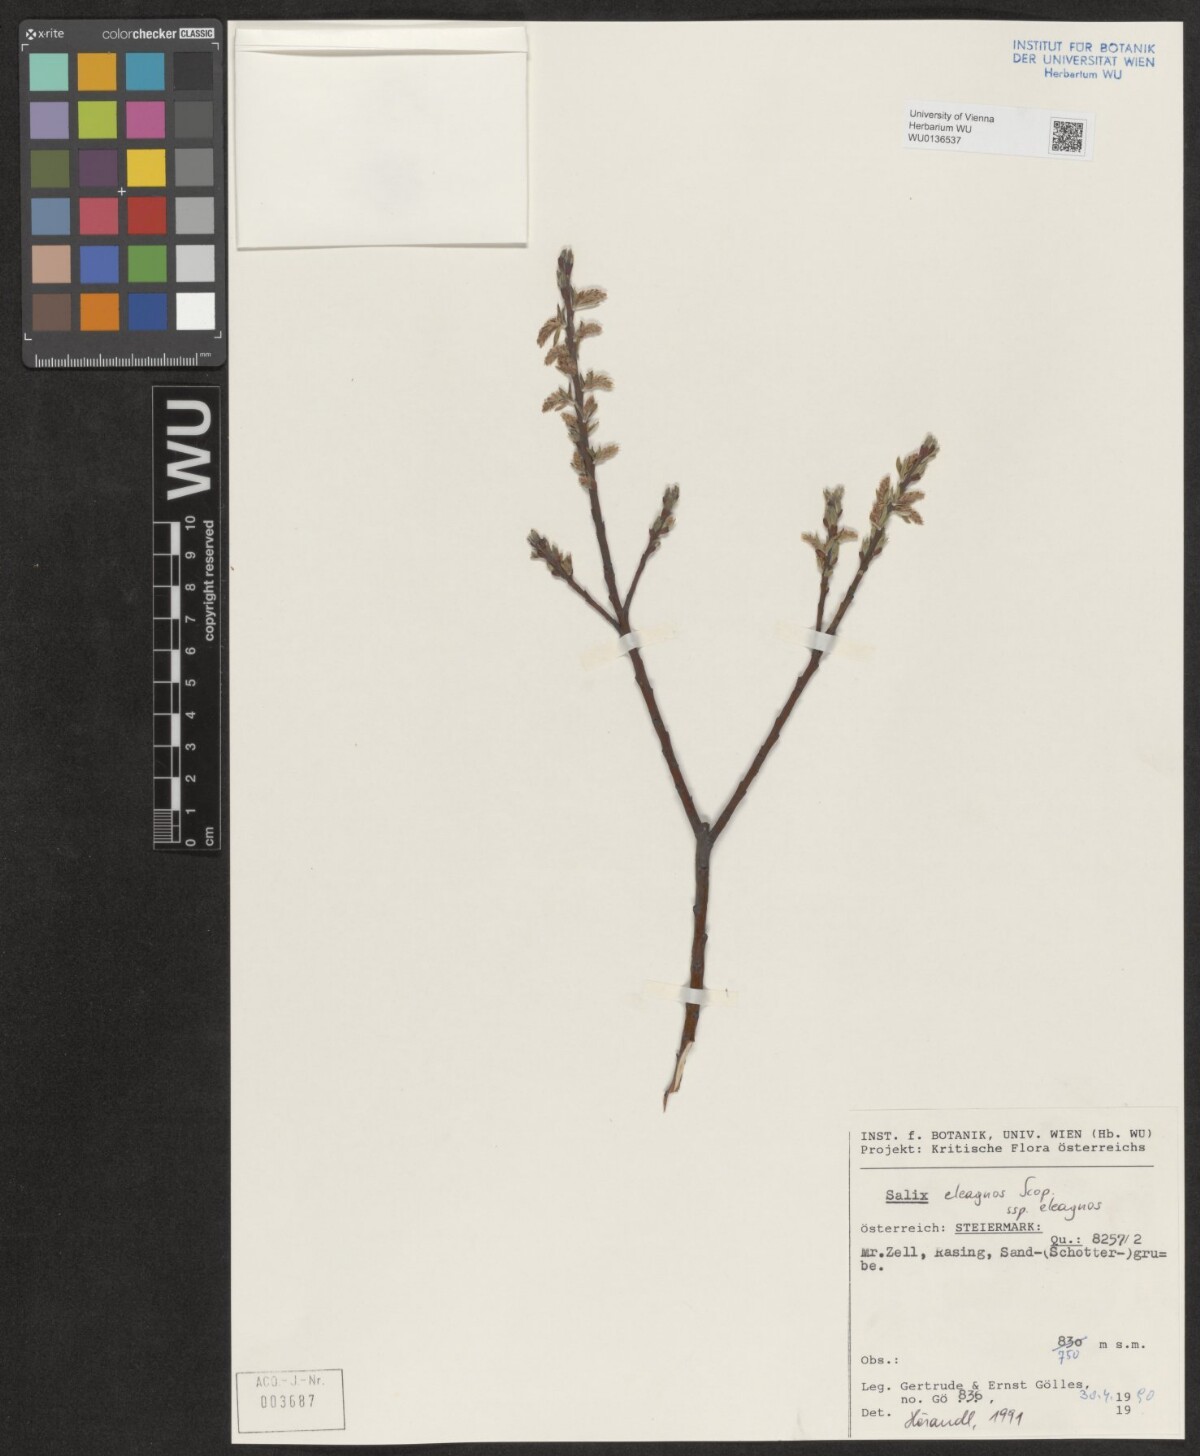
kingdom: Plantae
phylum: Tracheophyta
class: Magnoliopsida
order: Malpighiales
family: Salicaceae
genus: Salix
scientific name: Salix eleagnos
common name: Elaeagnus willow
